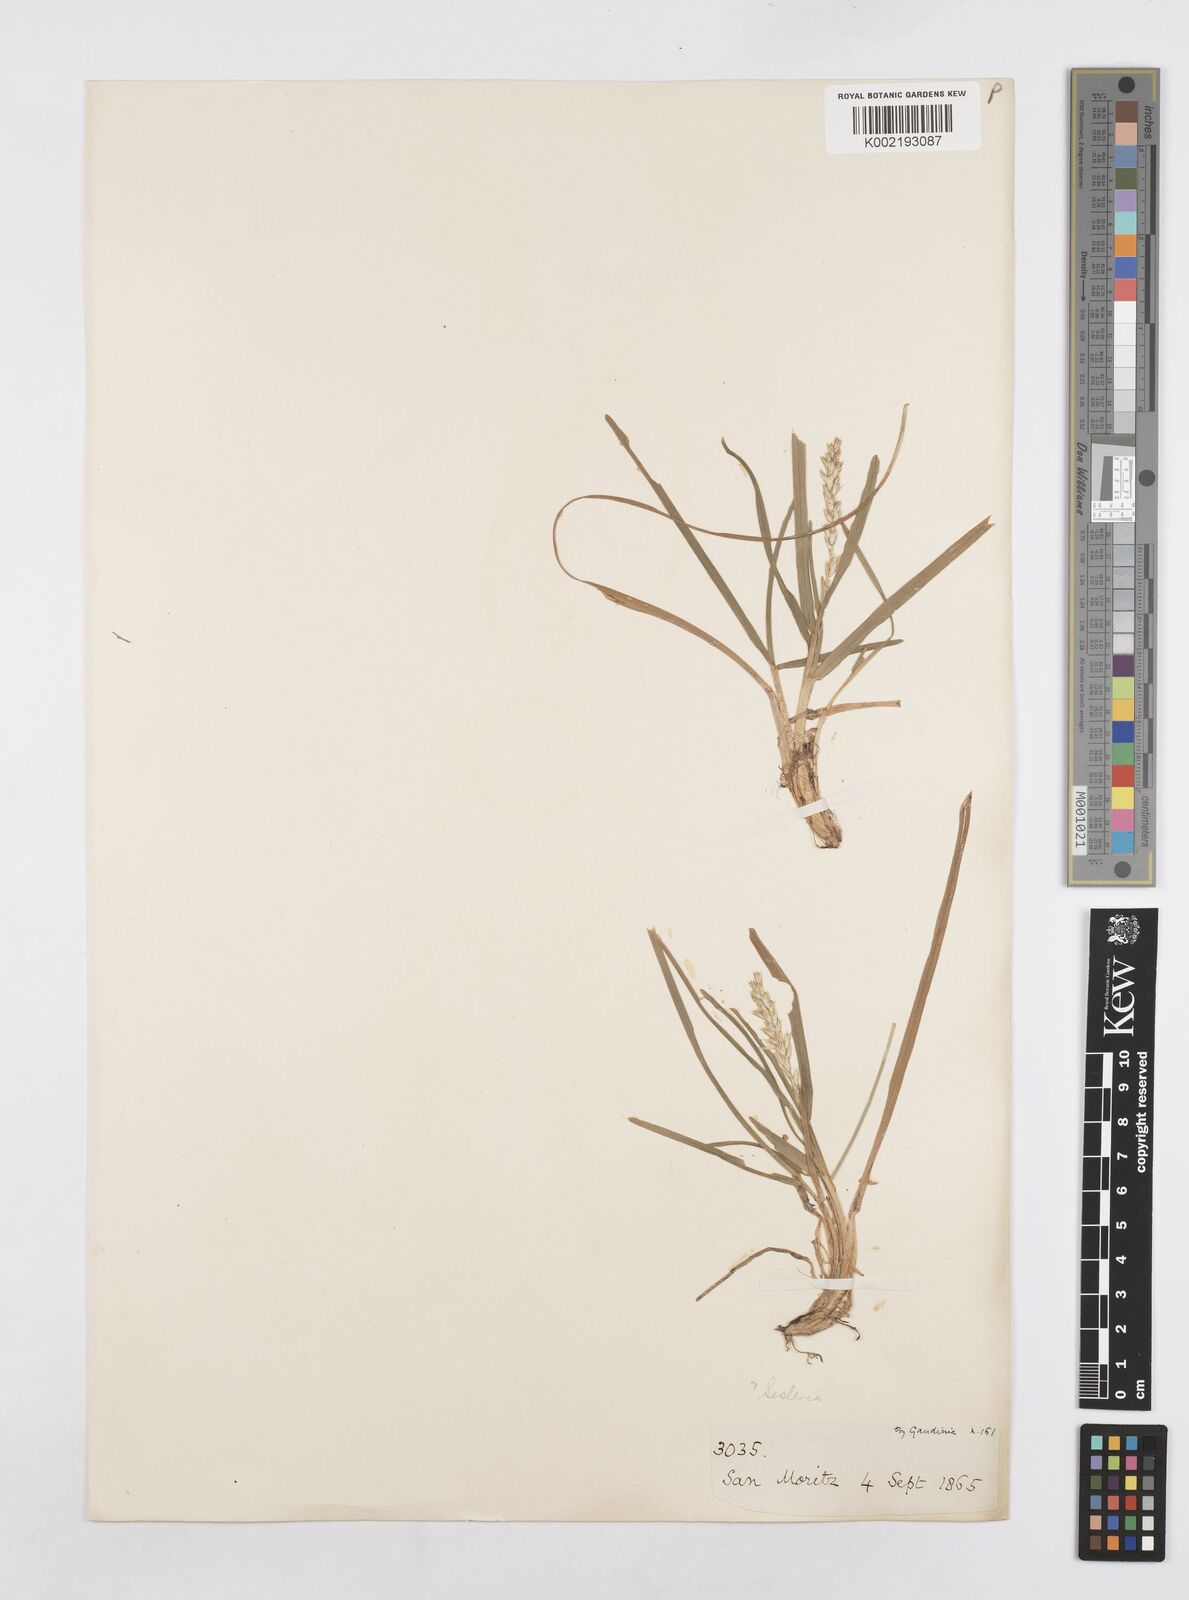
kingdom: Plantae
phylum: Tracheophyta
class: Liliopsida
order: Poales
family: Poaceae
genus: Sesleria
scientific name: Sesleria
